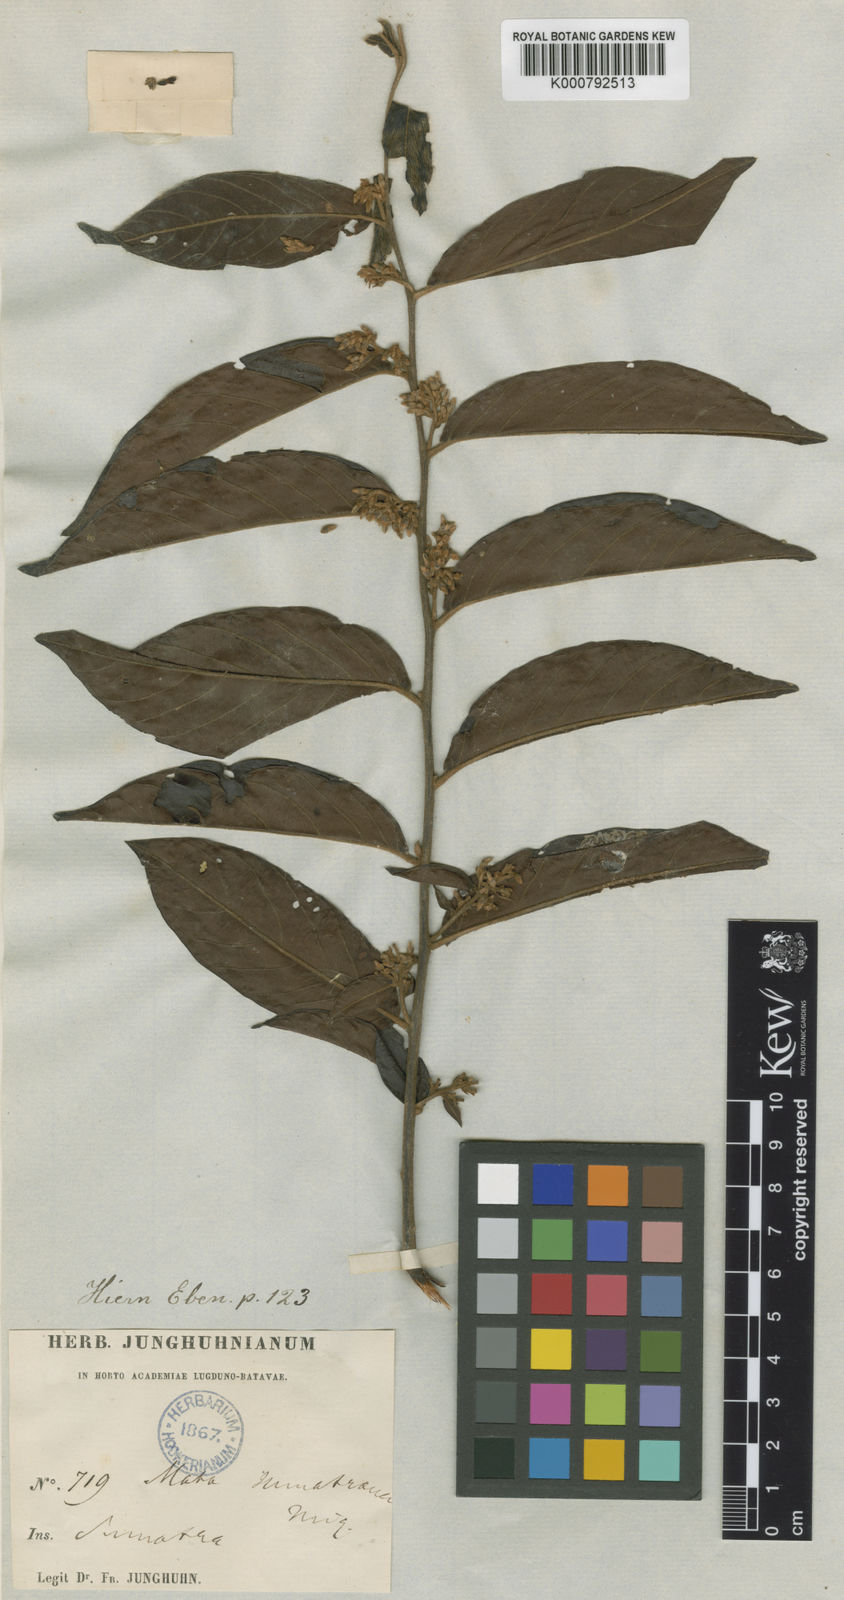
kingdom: Plantae
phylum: Tracheophyta
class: Magnoliopsida
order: Ericales
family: Ebenaceae
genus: Diospyros
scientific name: Diospyros andamanica
